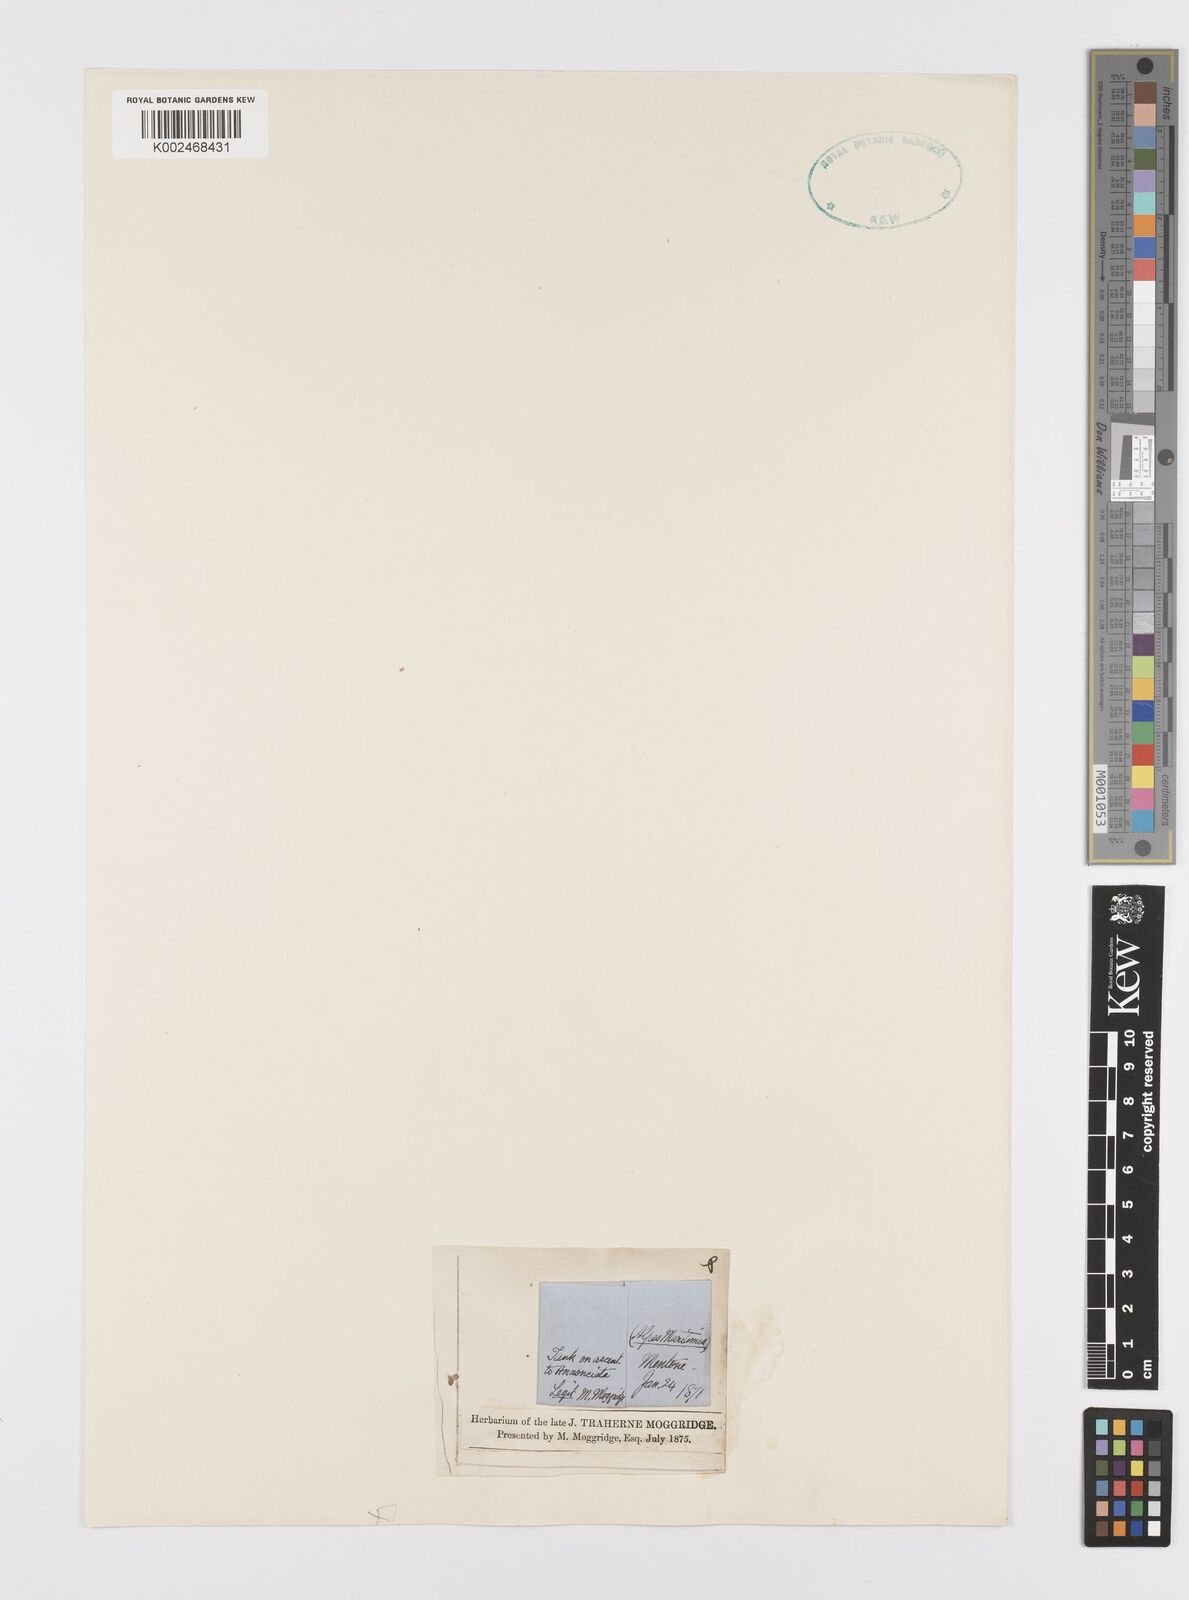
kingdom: Plantae
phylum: Tracheophyta
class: Liliopsida
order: Alismatales
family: Araceae
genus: Wolffia
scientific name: Wolffia
